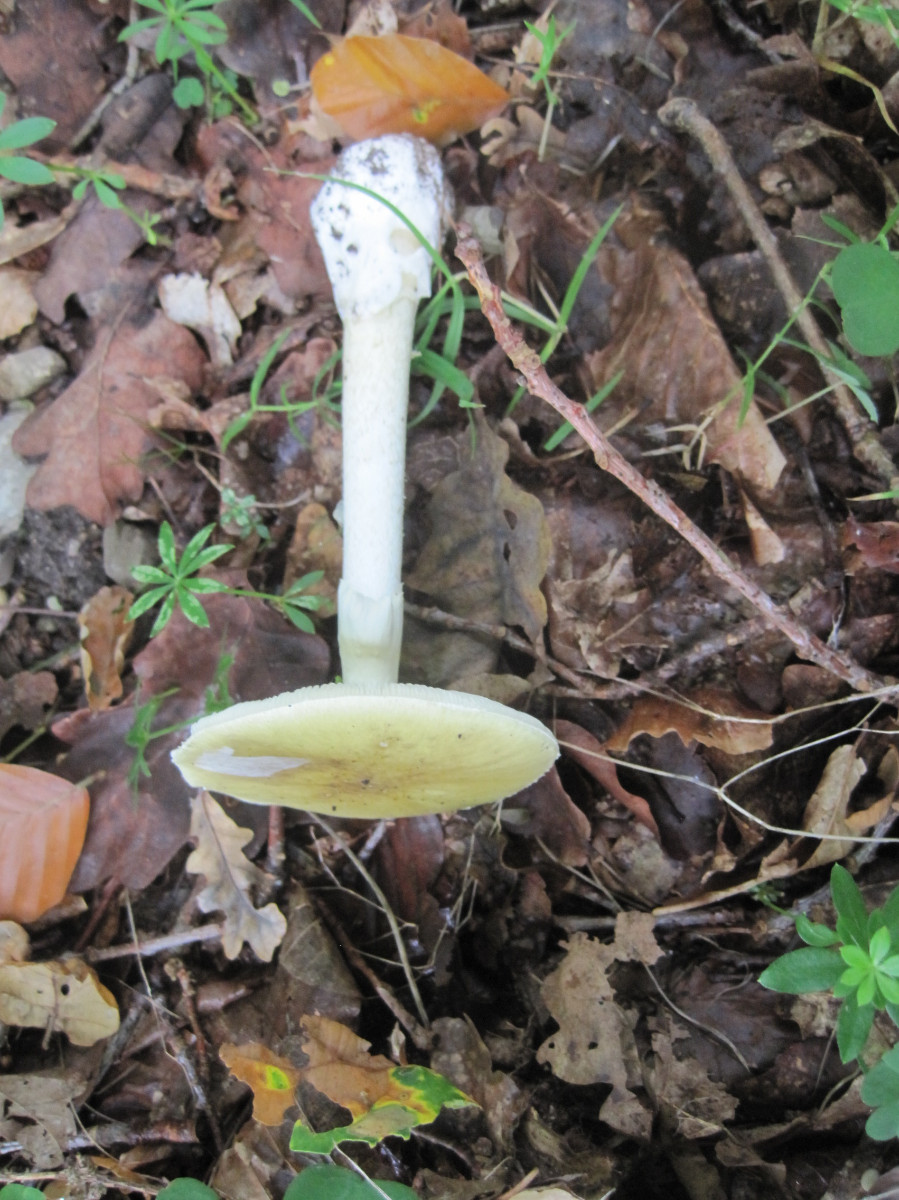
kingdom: Fungi
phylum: Basidiomycota
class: Agaricomycetes
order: Agaricales
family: Amanitaceae
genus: Amanita
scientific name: Amanita phalloides
